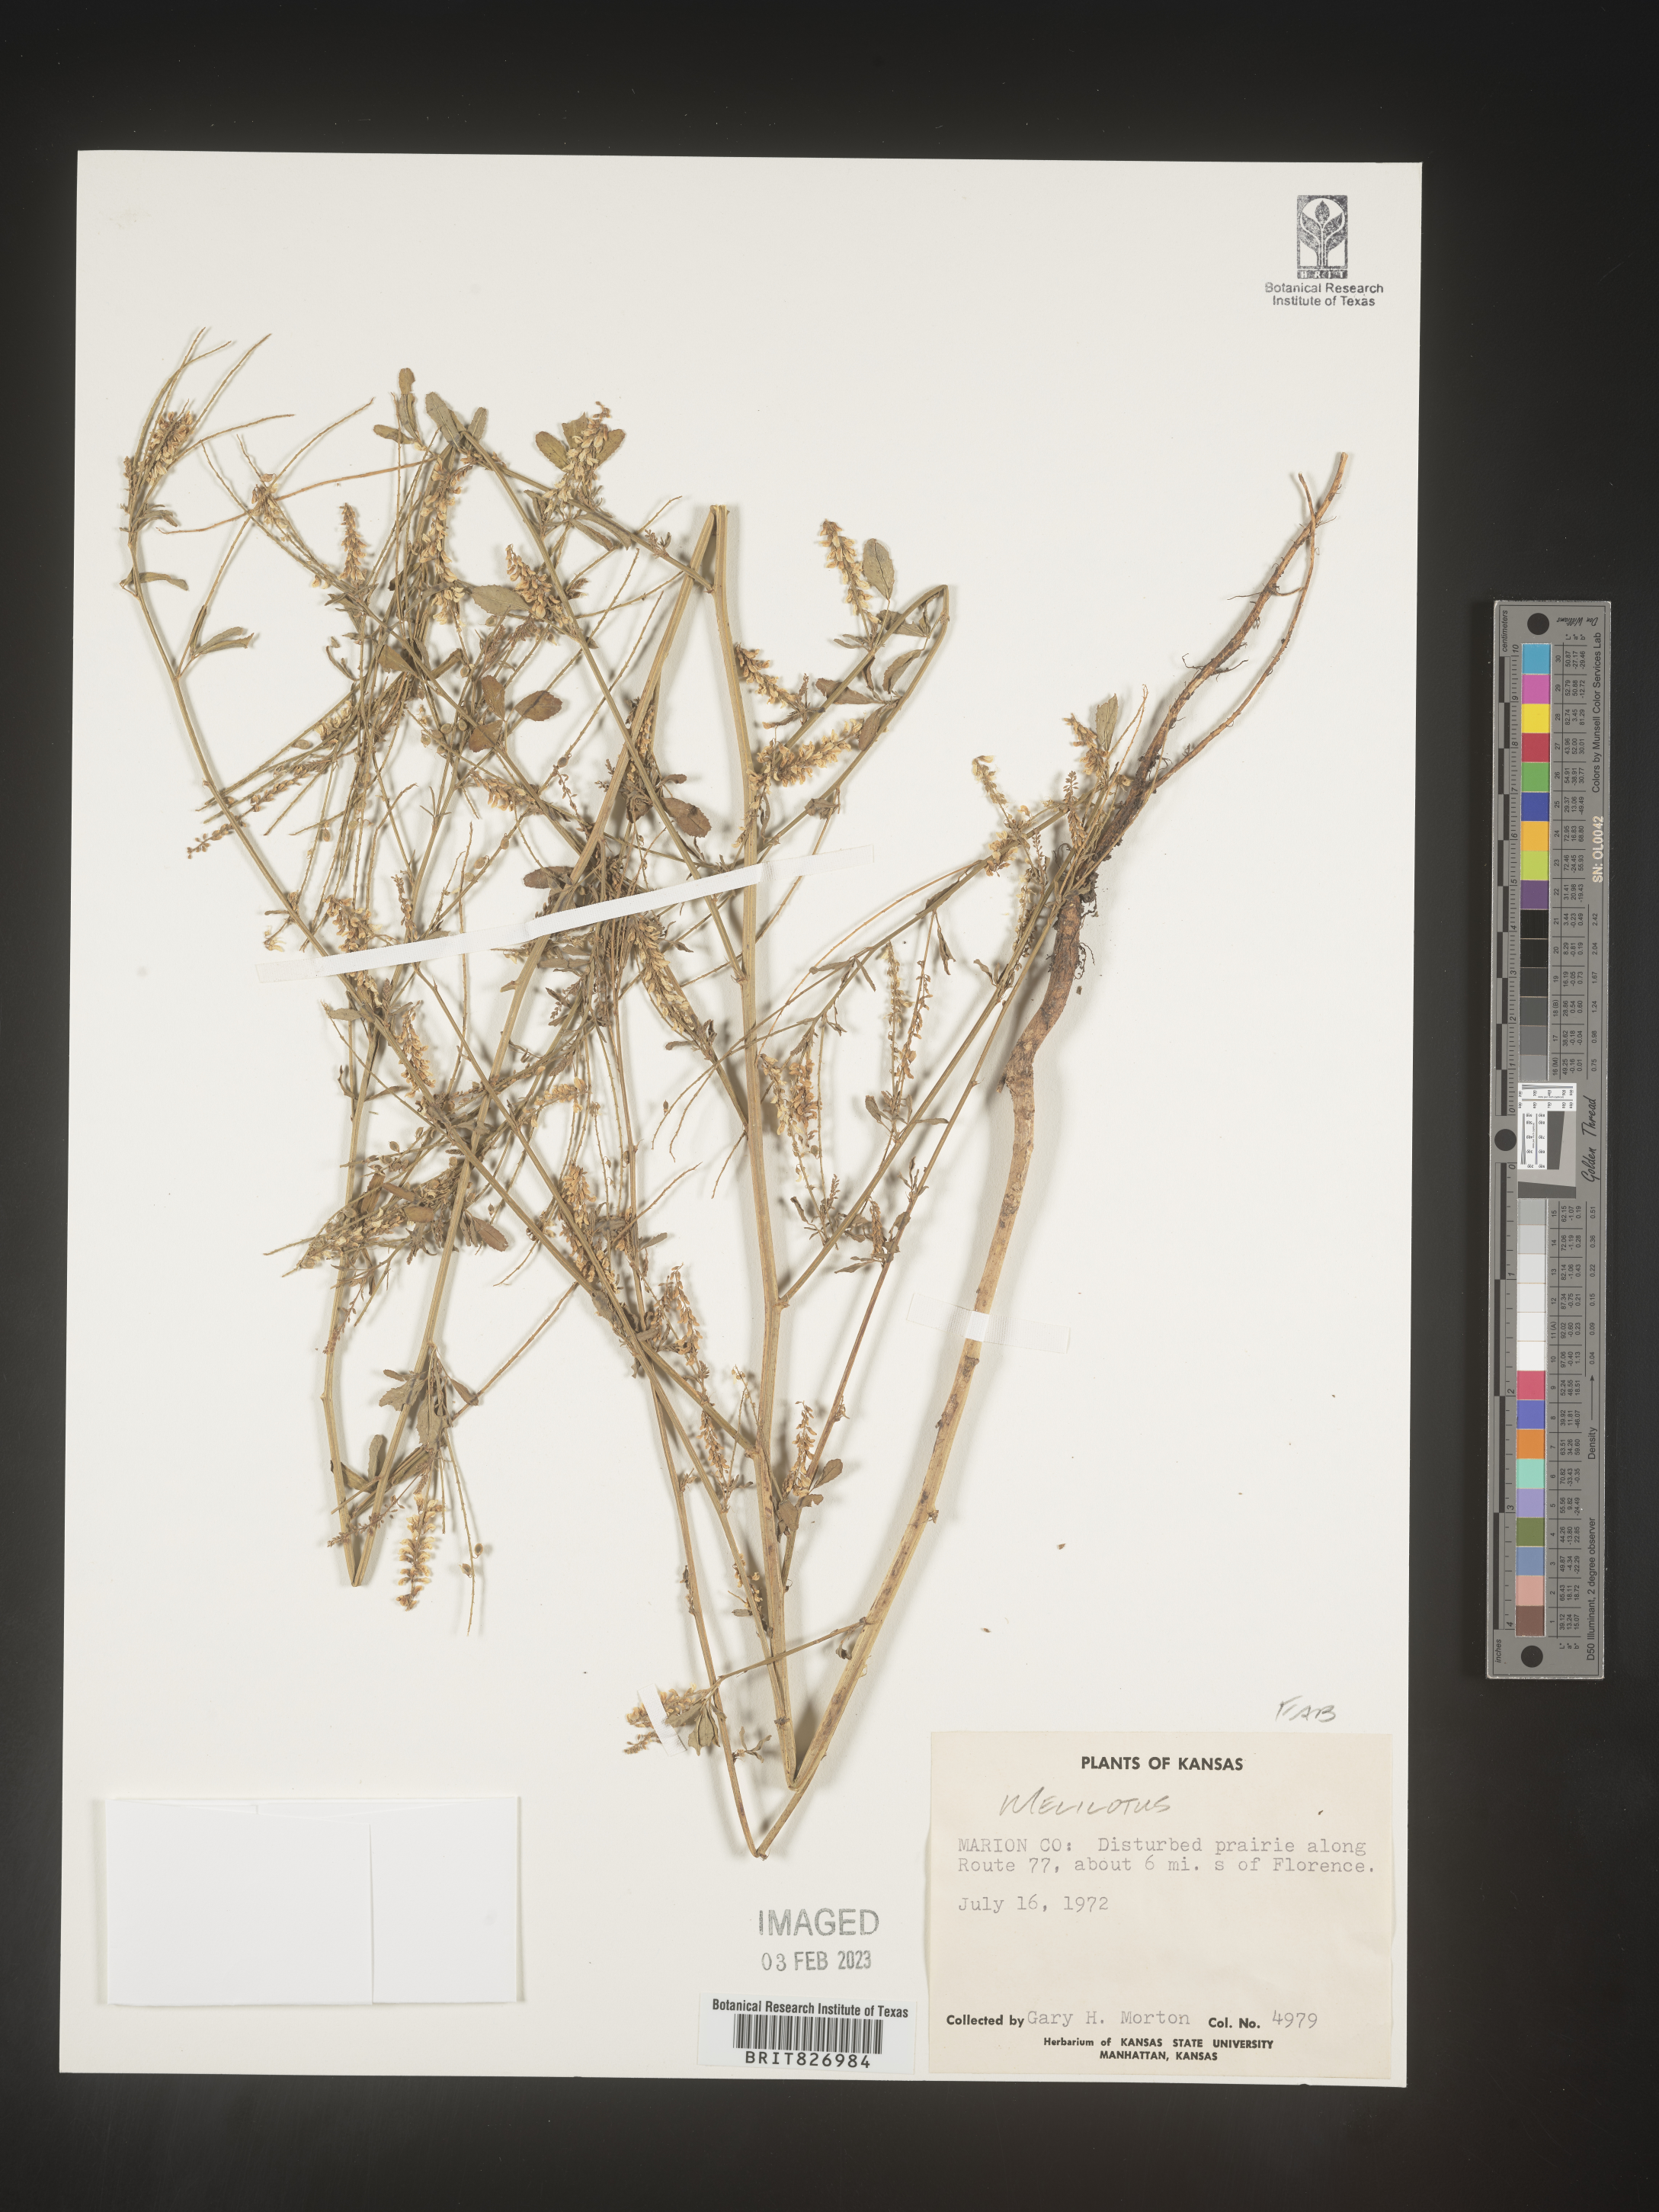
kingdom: Plantae
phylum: Tracheophyta
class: Magnoliopsida
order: Fabales
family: Fabaceae
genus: Melilotus
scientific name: Melilotus
